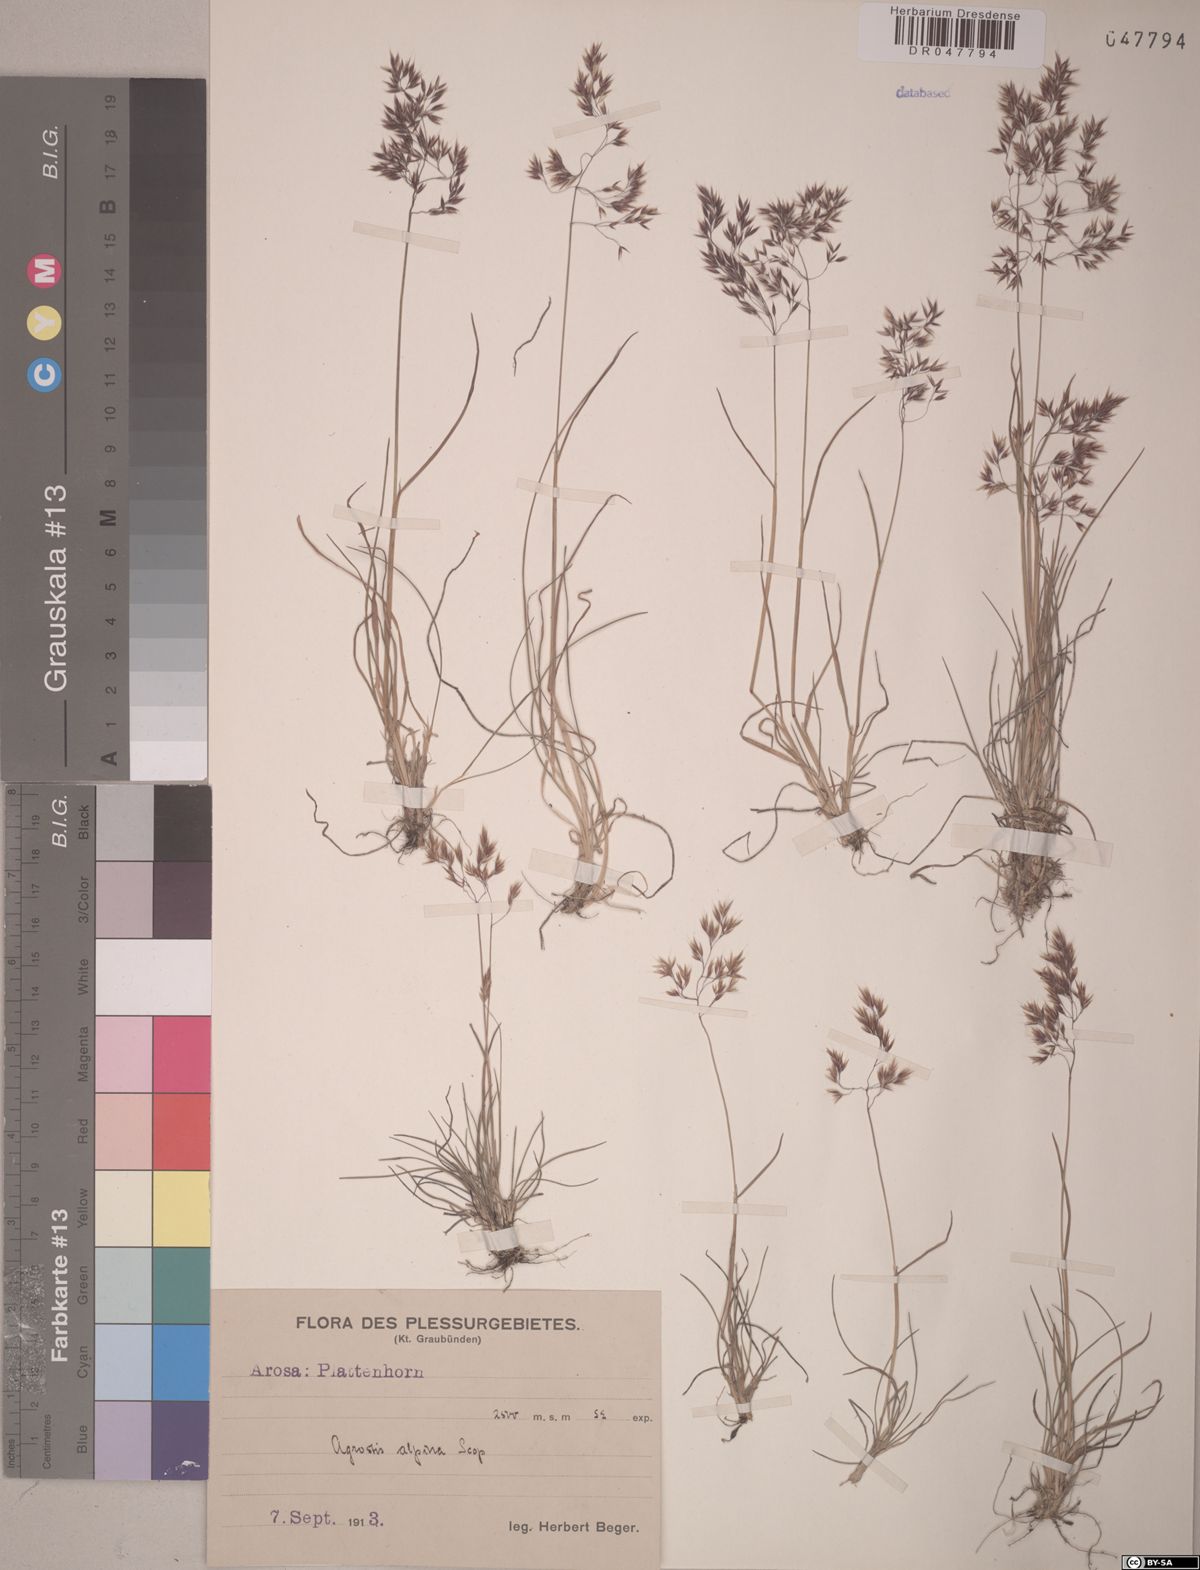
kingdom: Plantae
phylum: Tracheophyta
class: Liliopsida
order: Poales
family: Poaceae
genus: Alpagrostis
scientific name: Alpagrostis alpina
